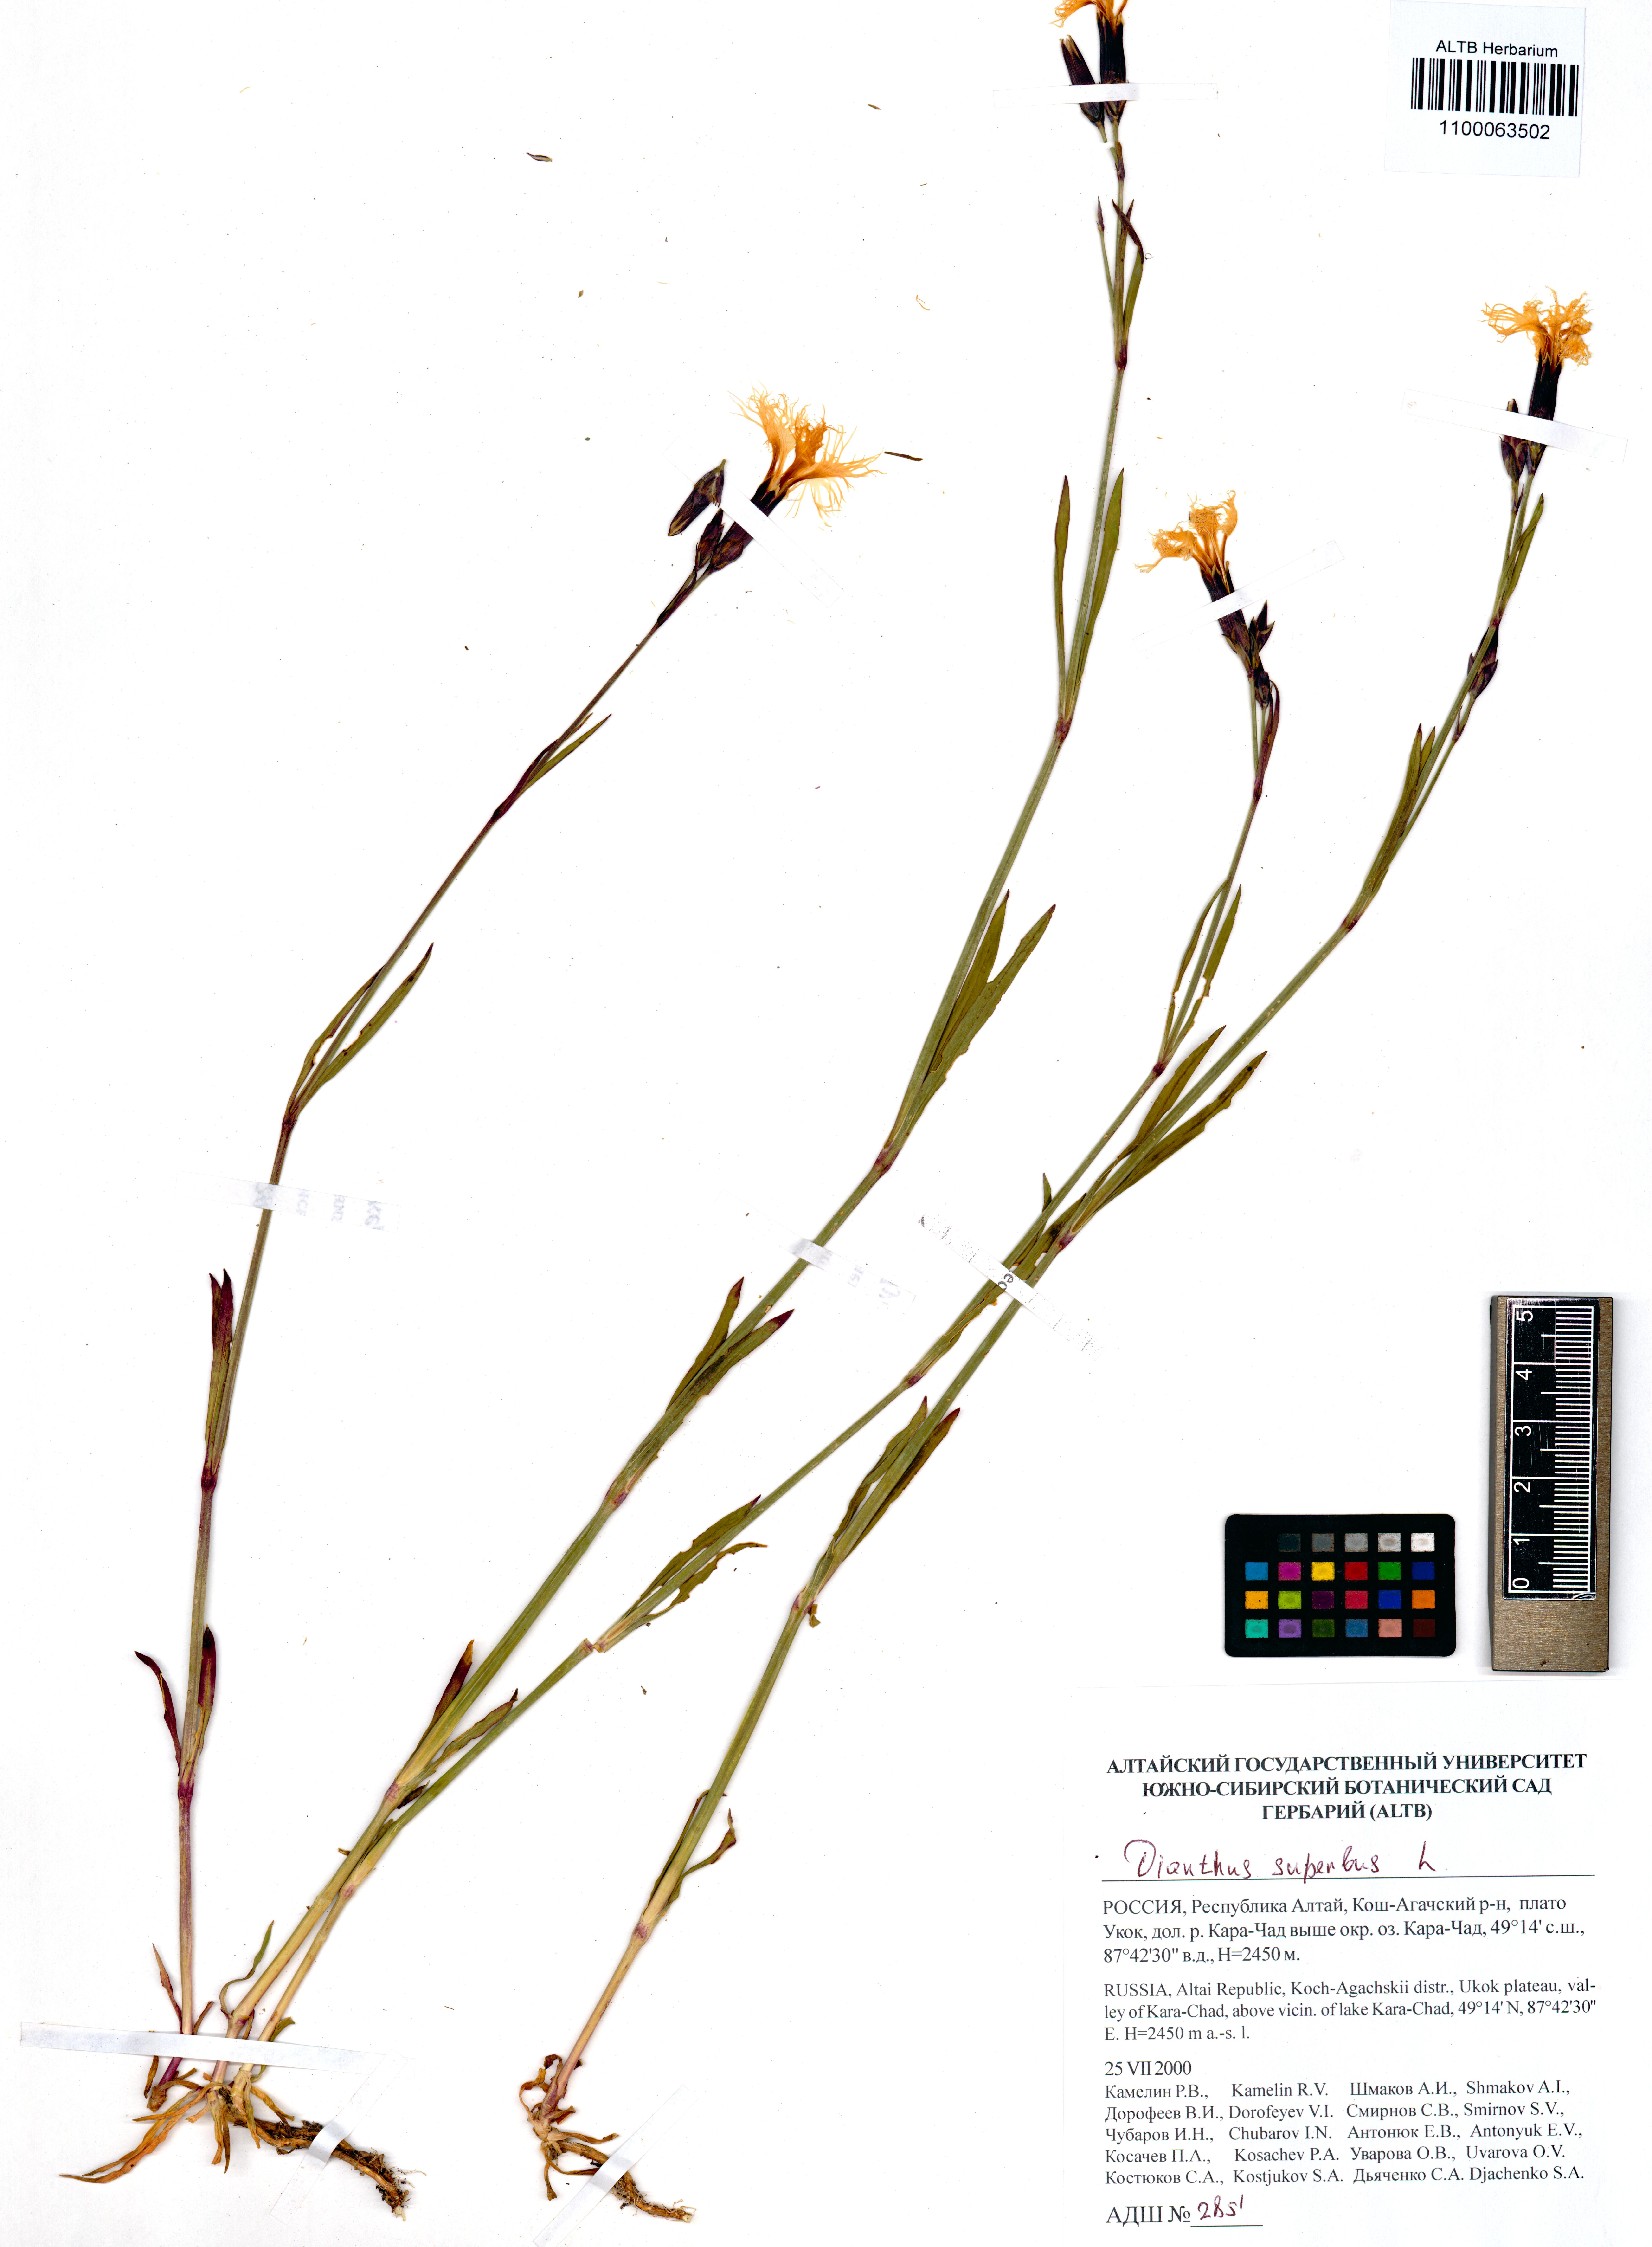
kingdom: Plantae
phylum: Tracheophyta
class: Magnoliopsida
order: Caryophyllales
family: Caryophyllaceae
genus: Dianthus
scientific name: Dianthus superbus
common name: Fringed pink
